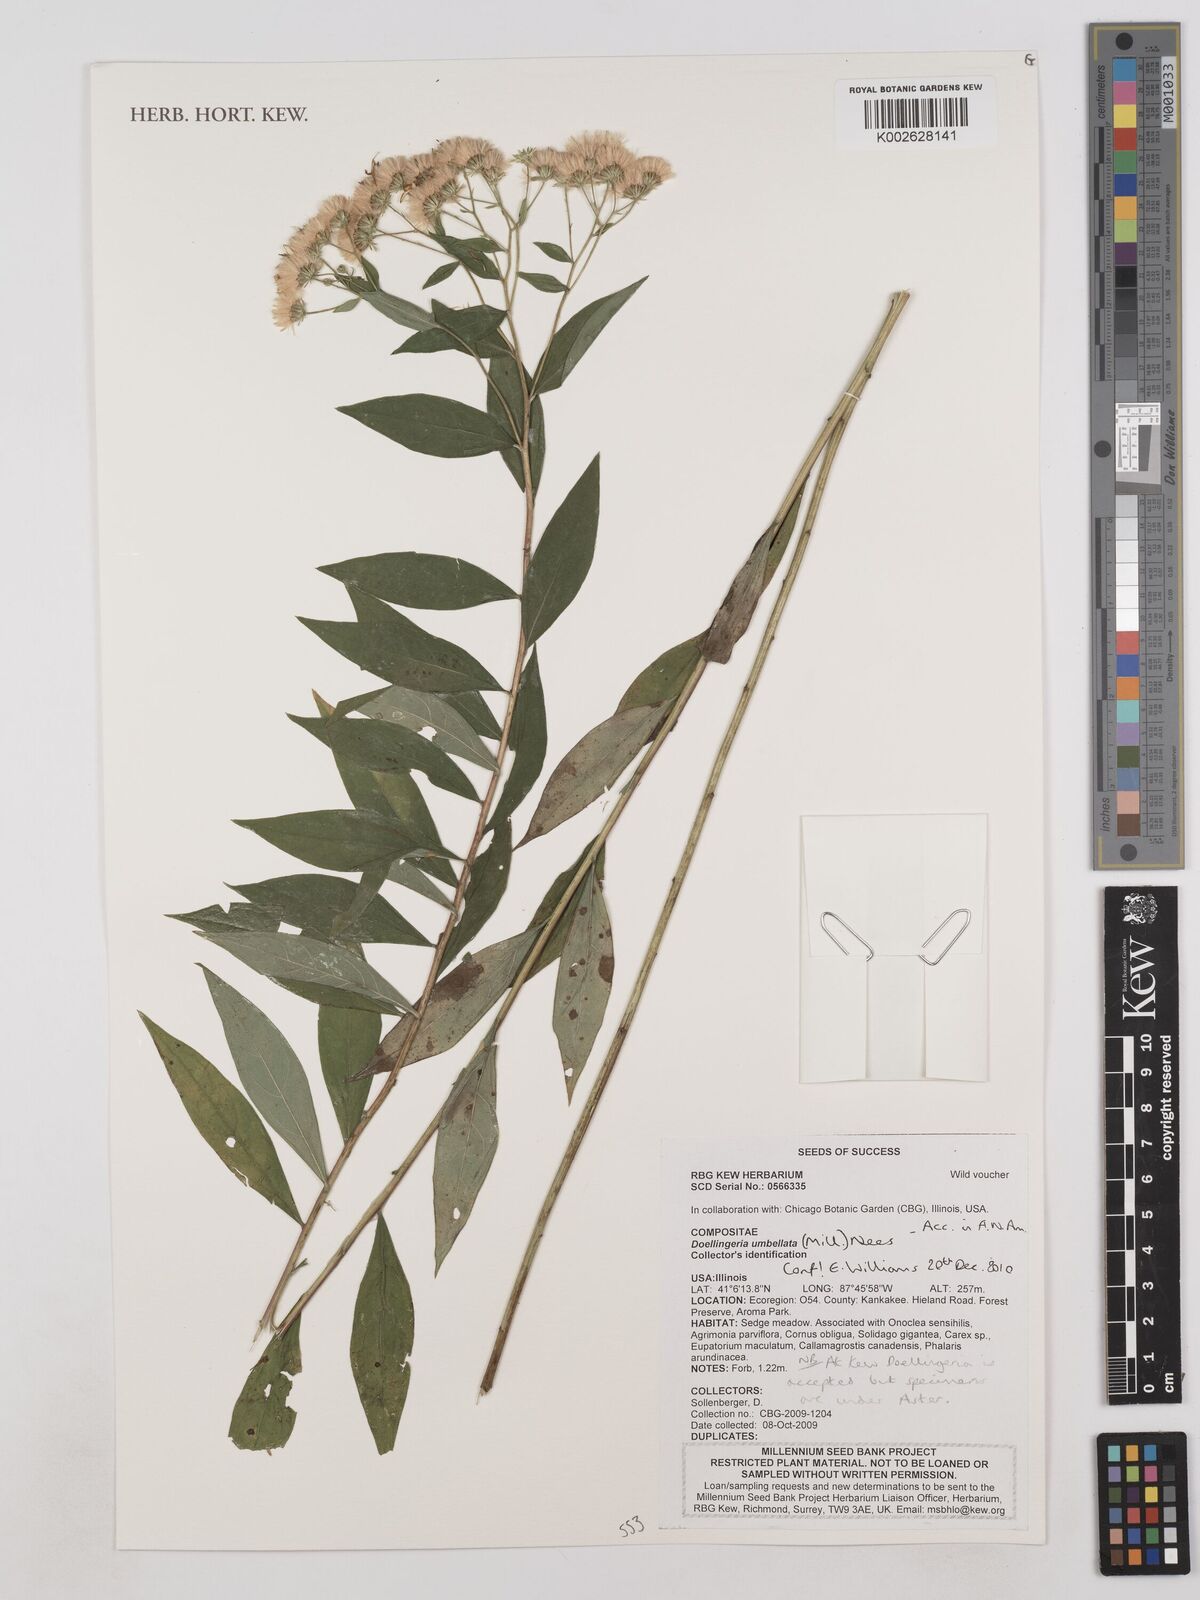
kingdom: Plantae
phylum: Tracheophyta
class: Magnoliopsida
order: Asterales
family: Asteraceae
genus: Doellingeria
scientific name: Doellingeria umbellata
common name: Flat-top white aster
